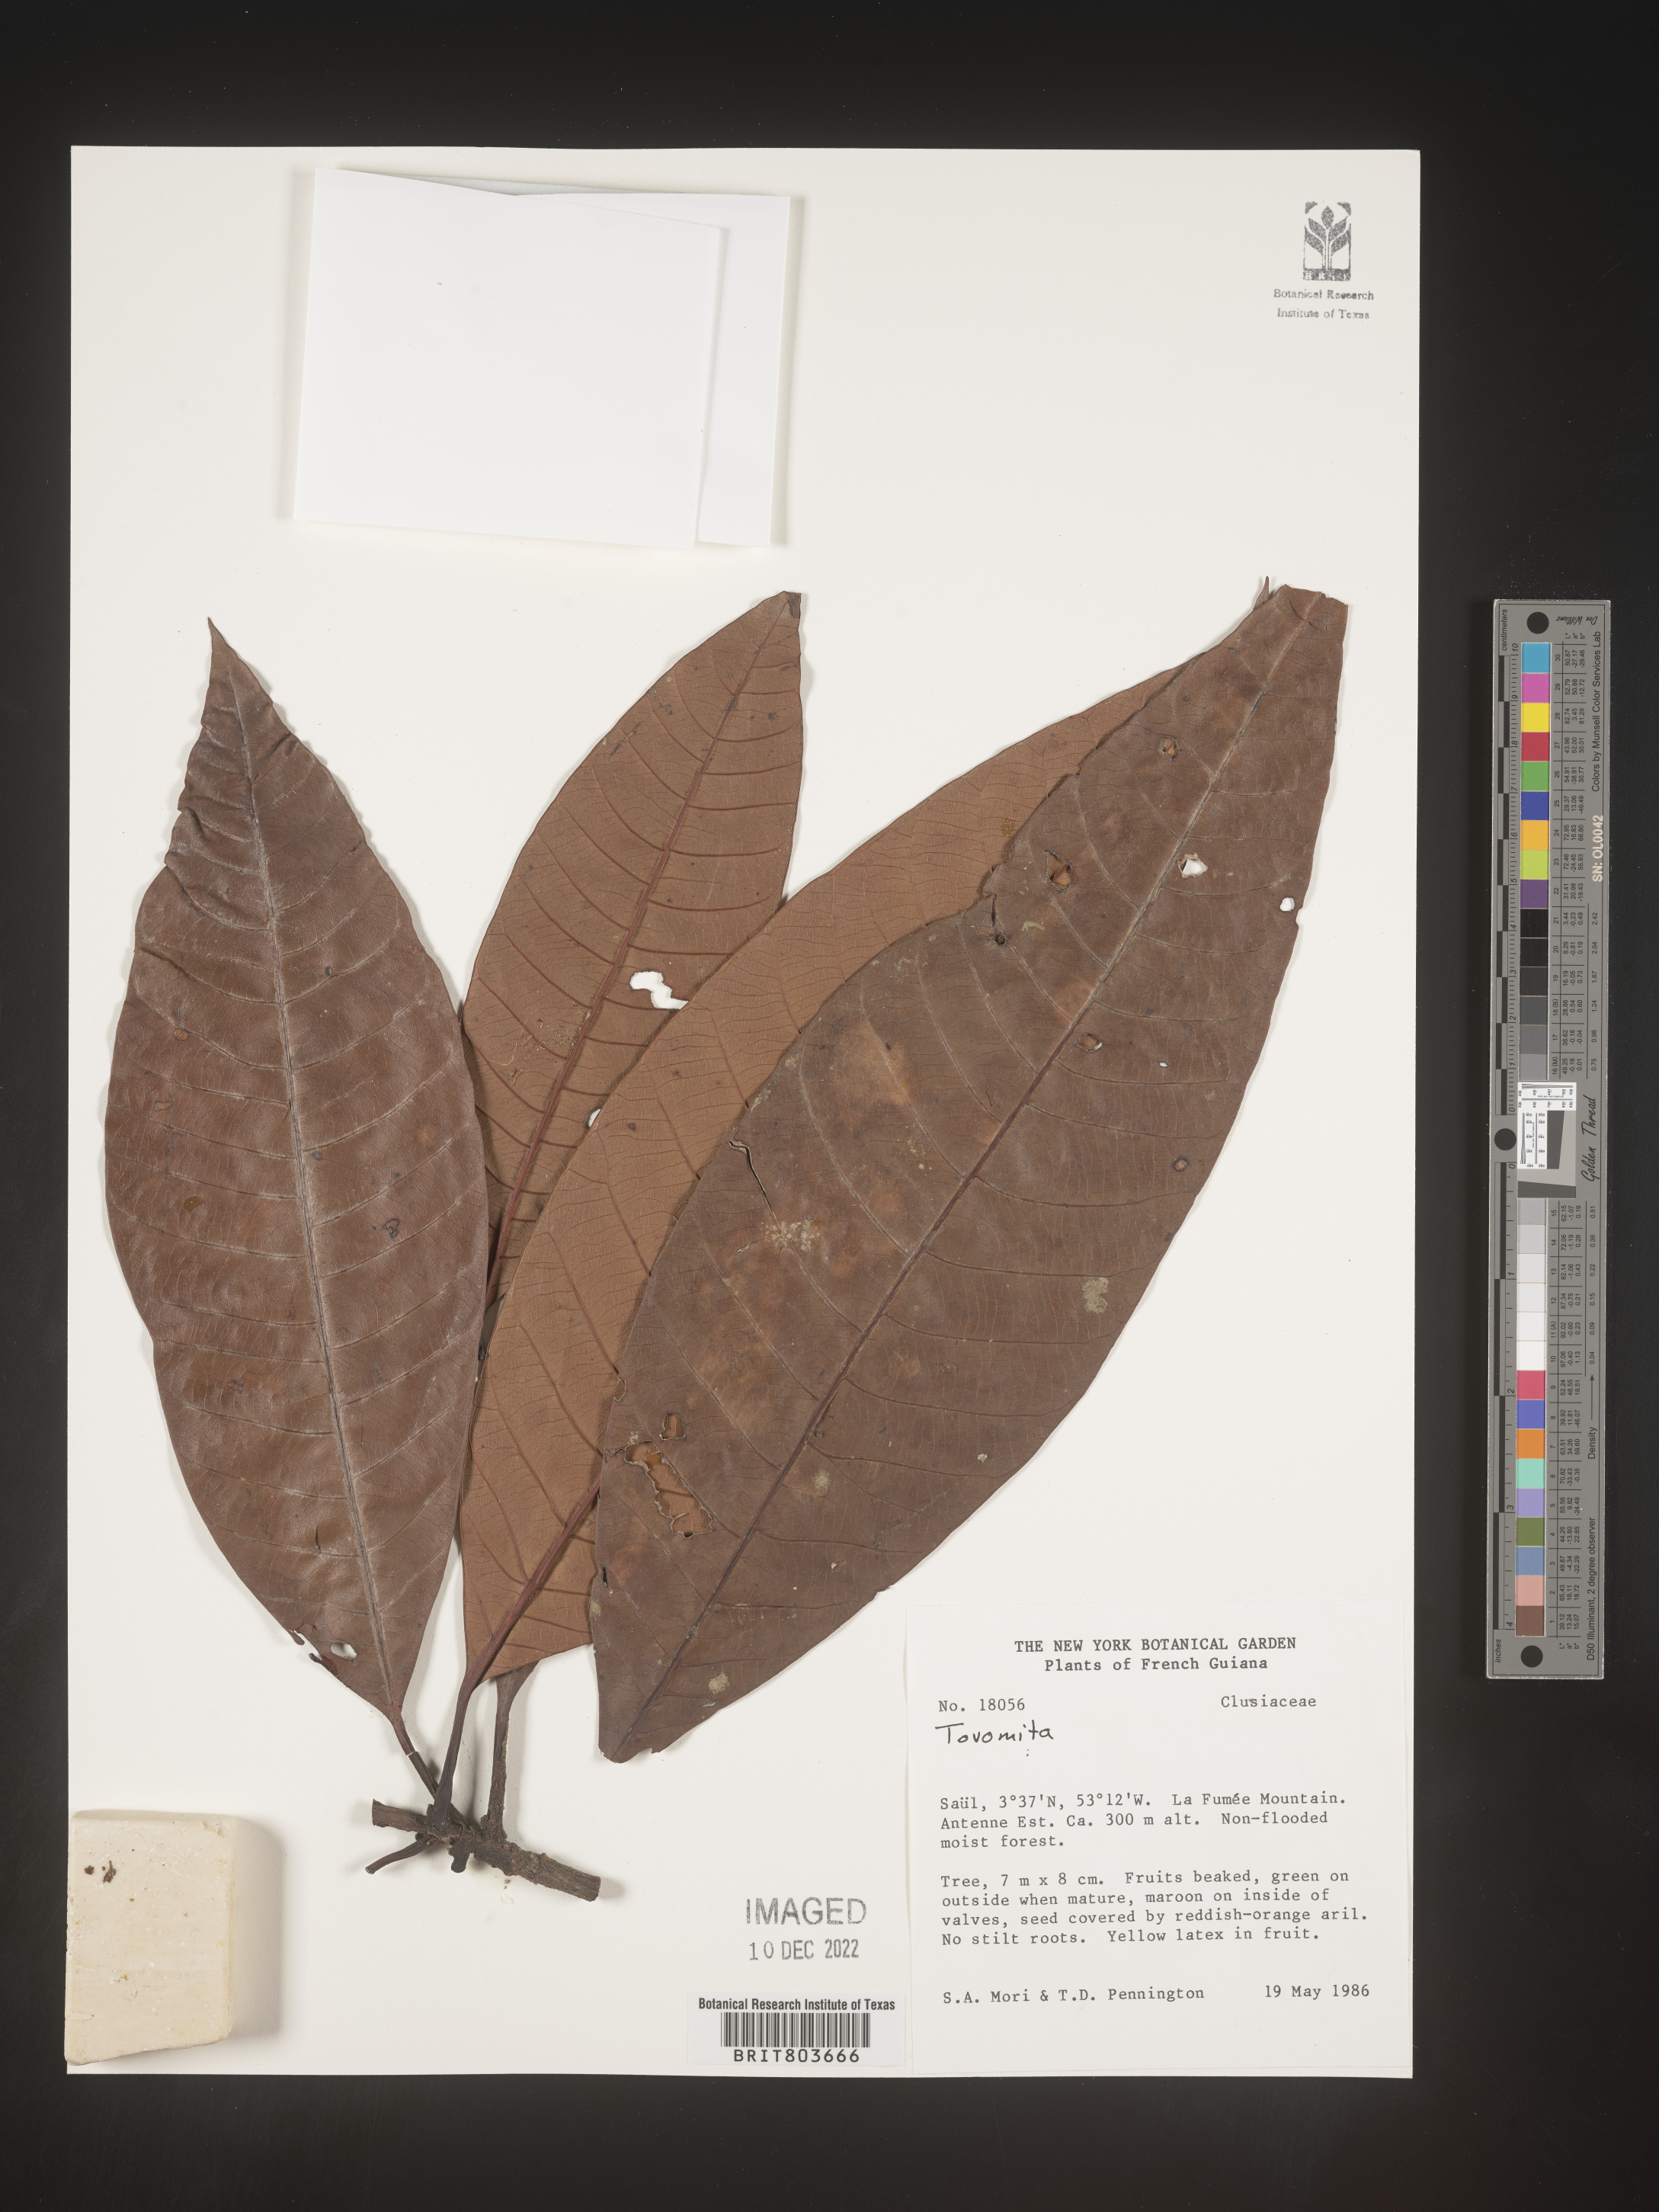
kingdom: Plantae
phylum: Tracheophyta
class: Magnoliopsida
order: Malpighiales
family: Clusiaceae
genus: Tovomita
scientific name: Tovomita
